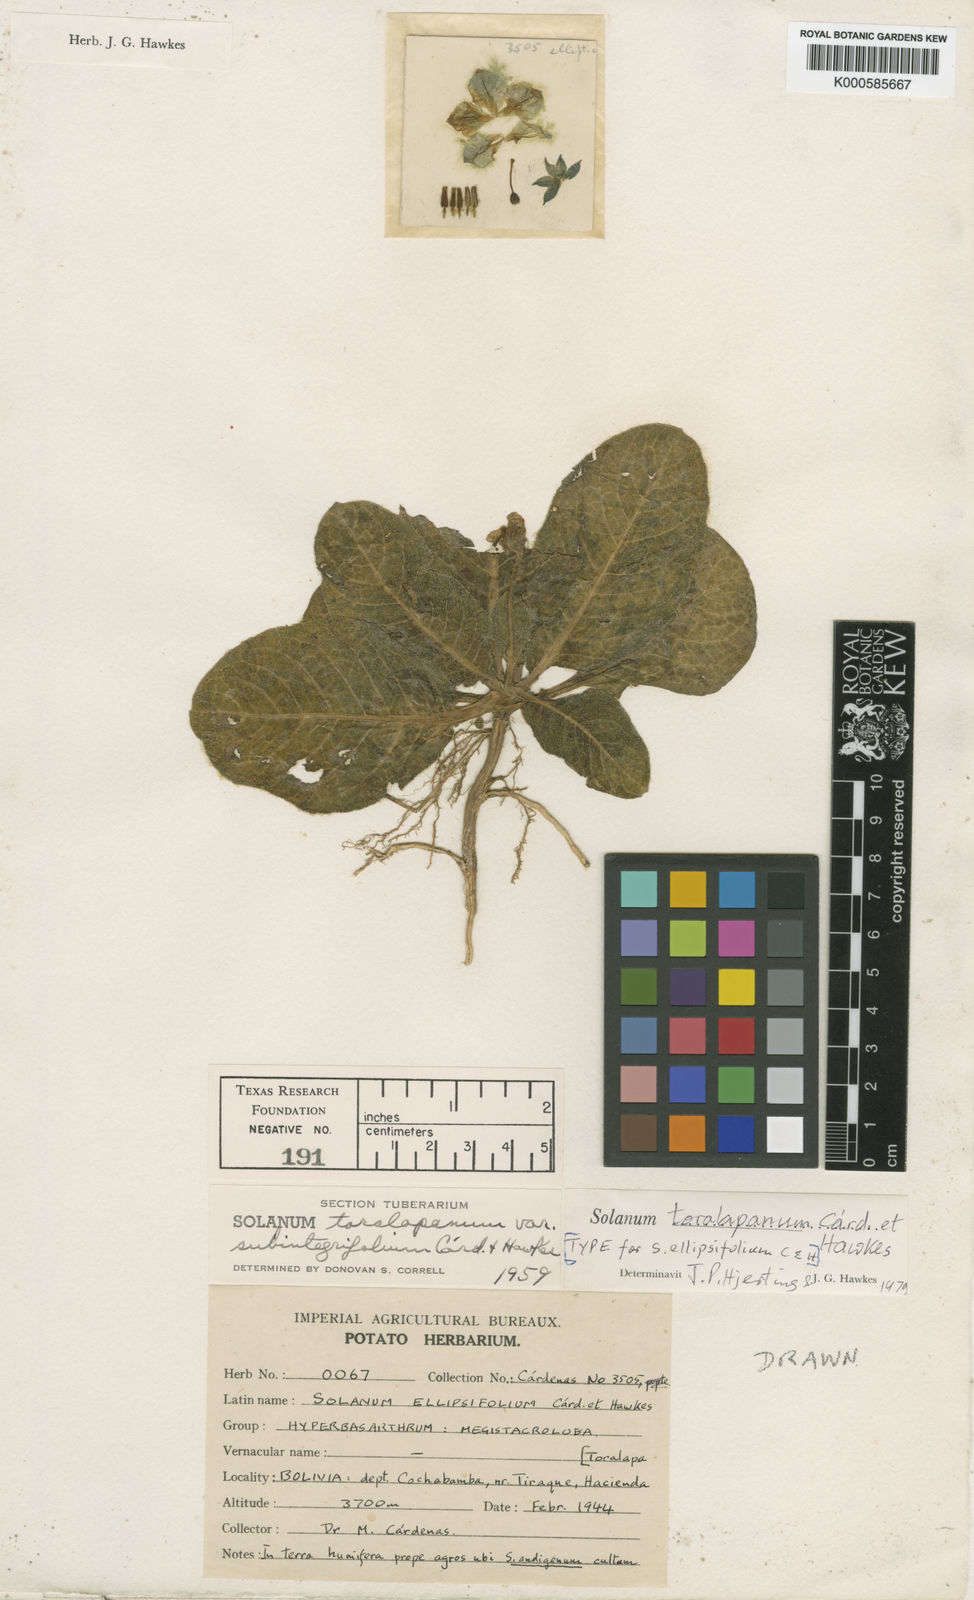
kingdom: Plantae
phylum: Tracheophyta
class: Magnoliopsida
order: Solanales
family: Solanaceae
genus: Solanum
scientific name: Solanum boliviense
